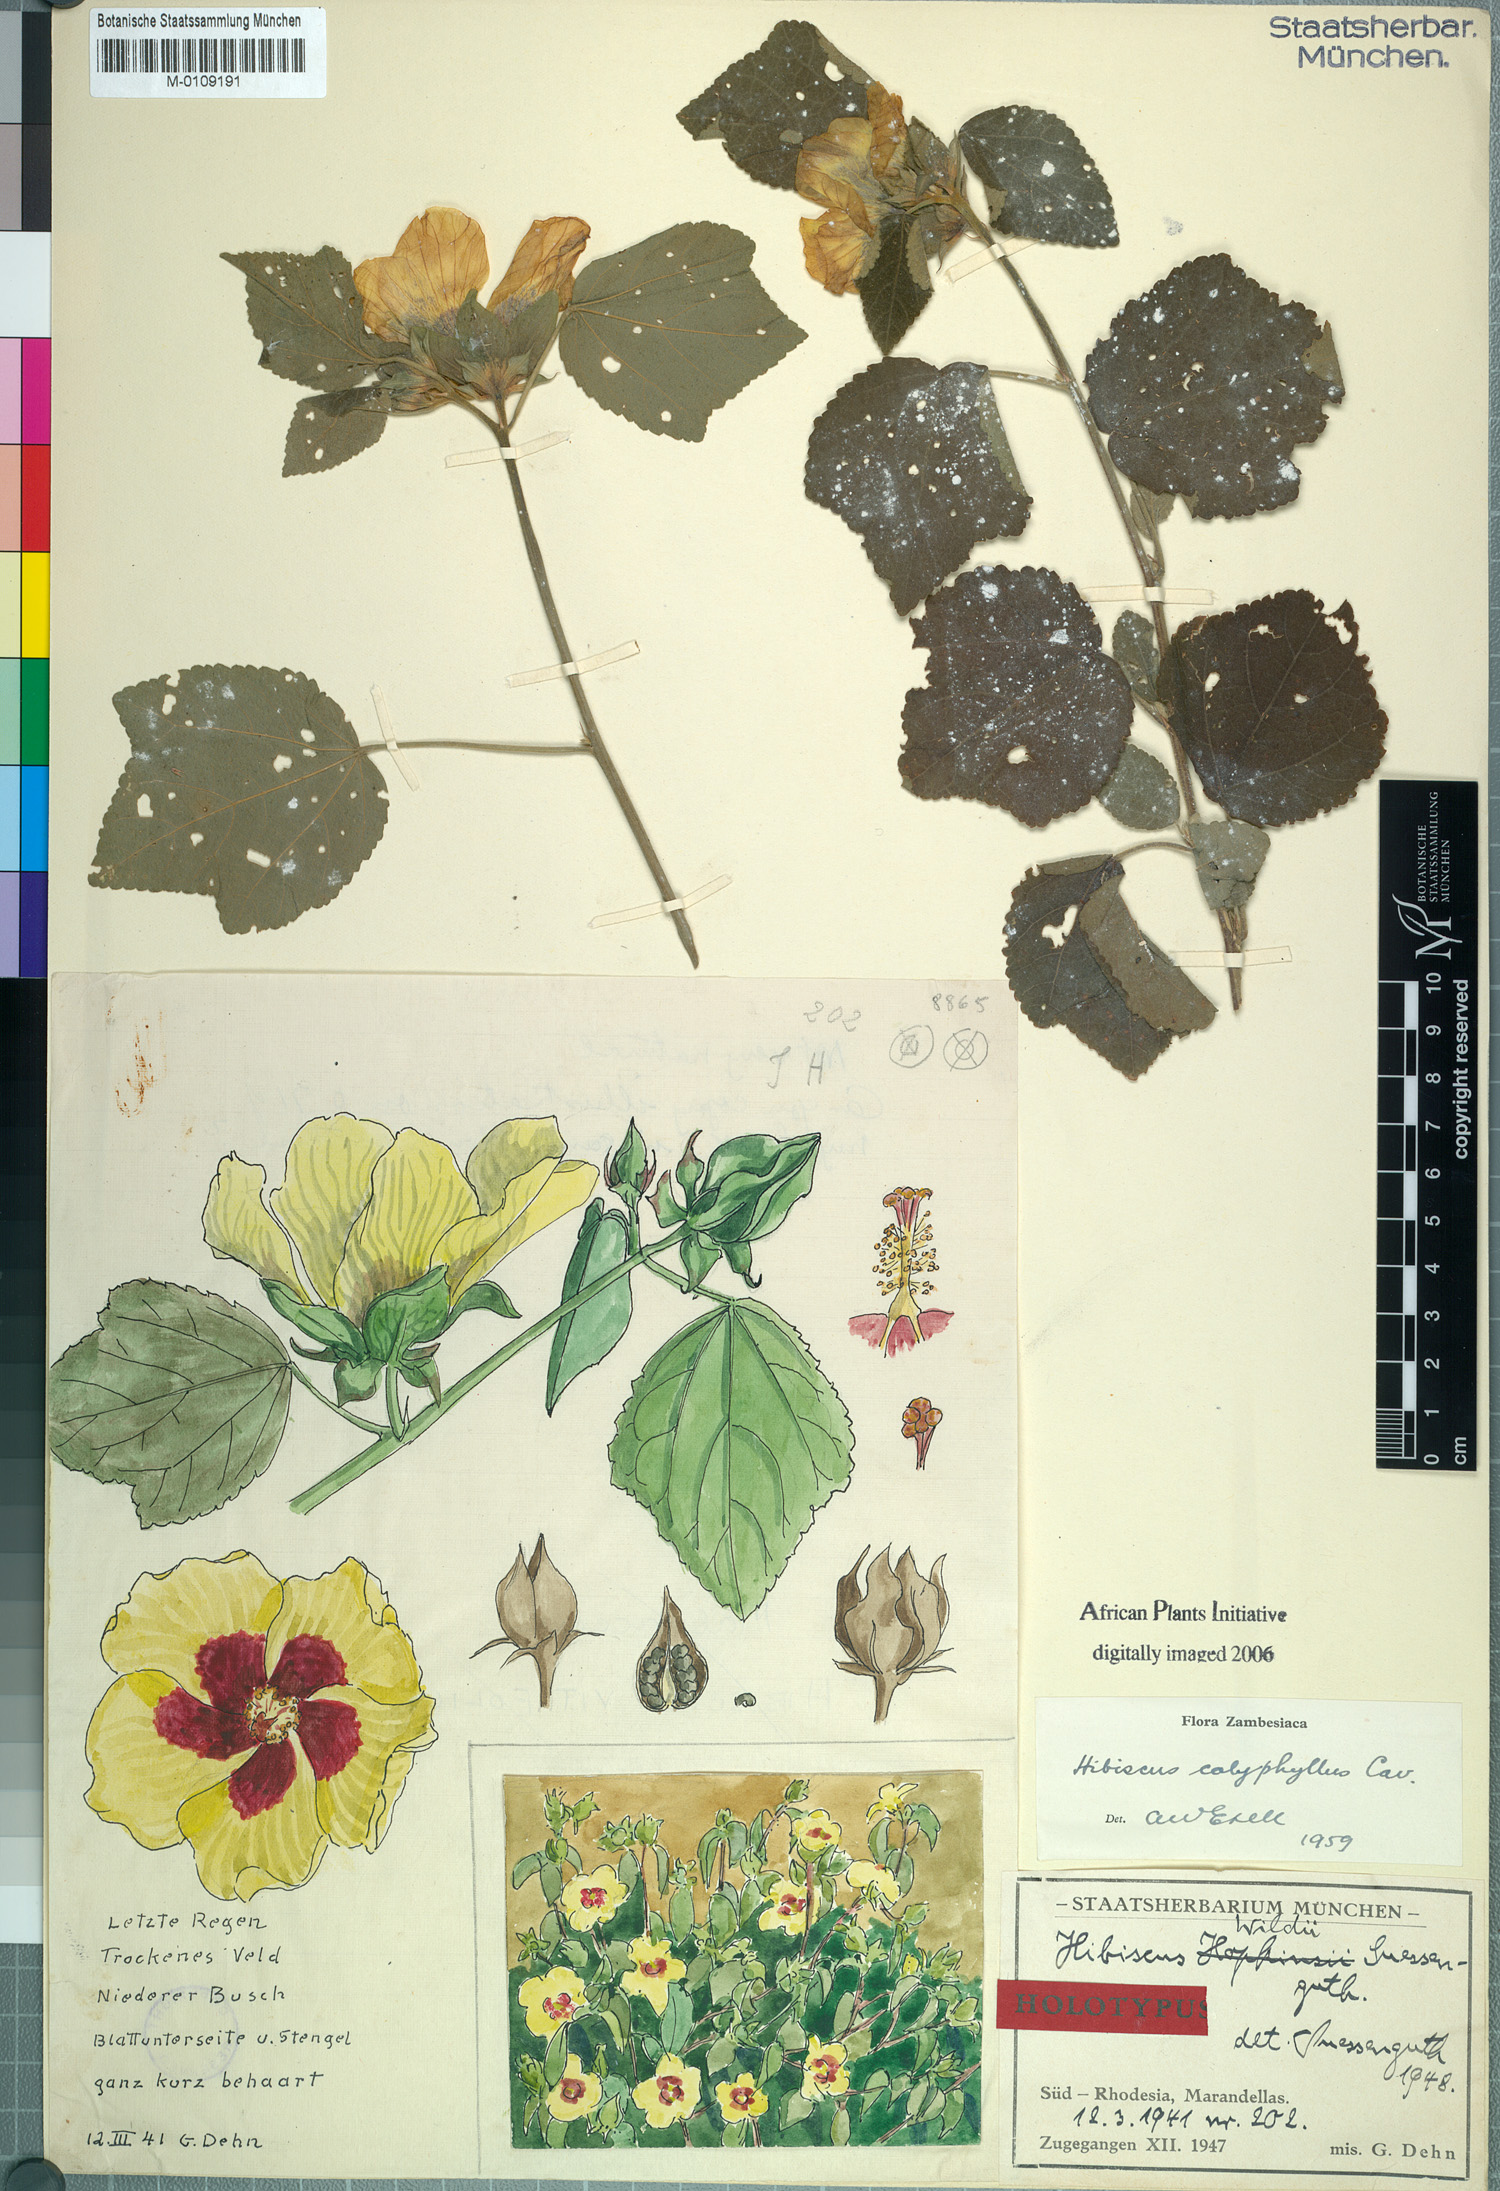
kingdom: Plantae
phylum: Tracheophyta
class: Magnoliopsida
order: Malvales
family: Malvaceae
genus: Hibiscus
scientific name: Hibiscus calyphyllus
